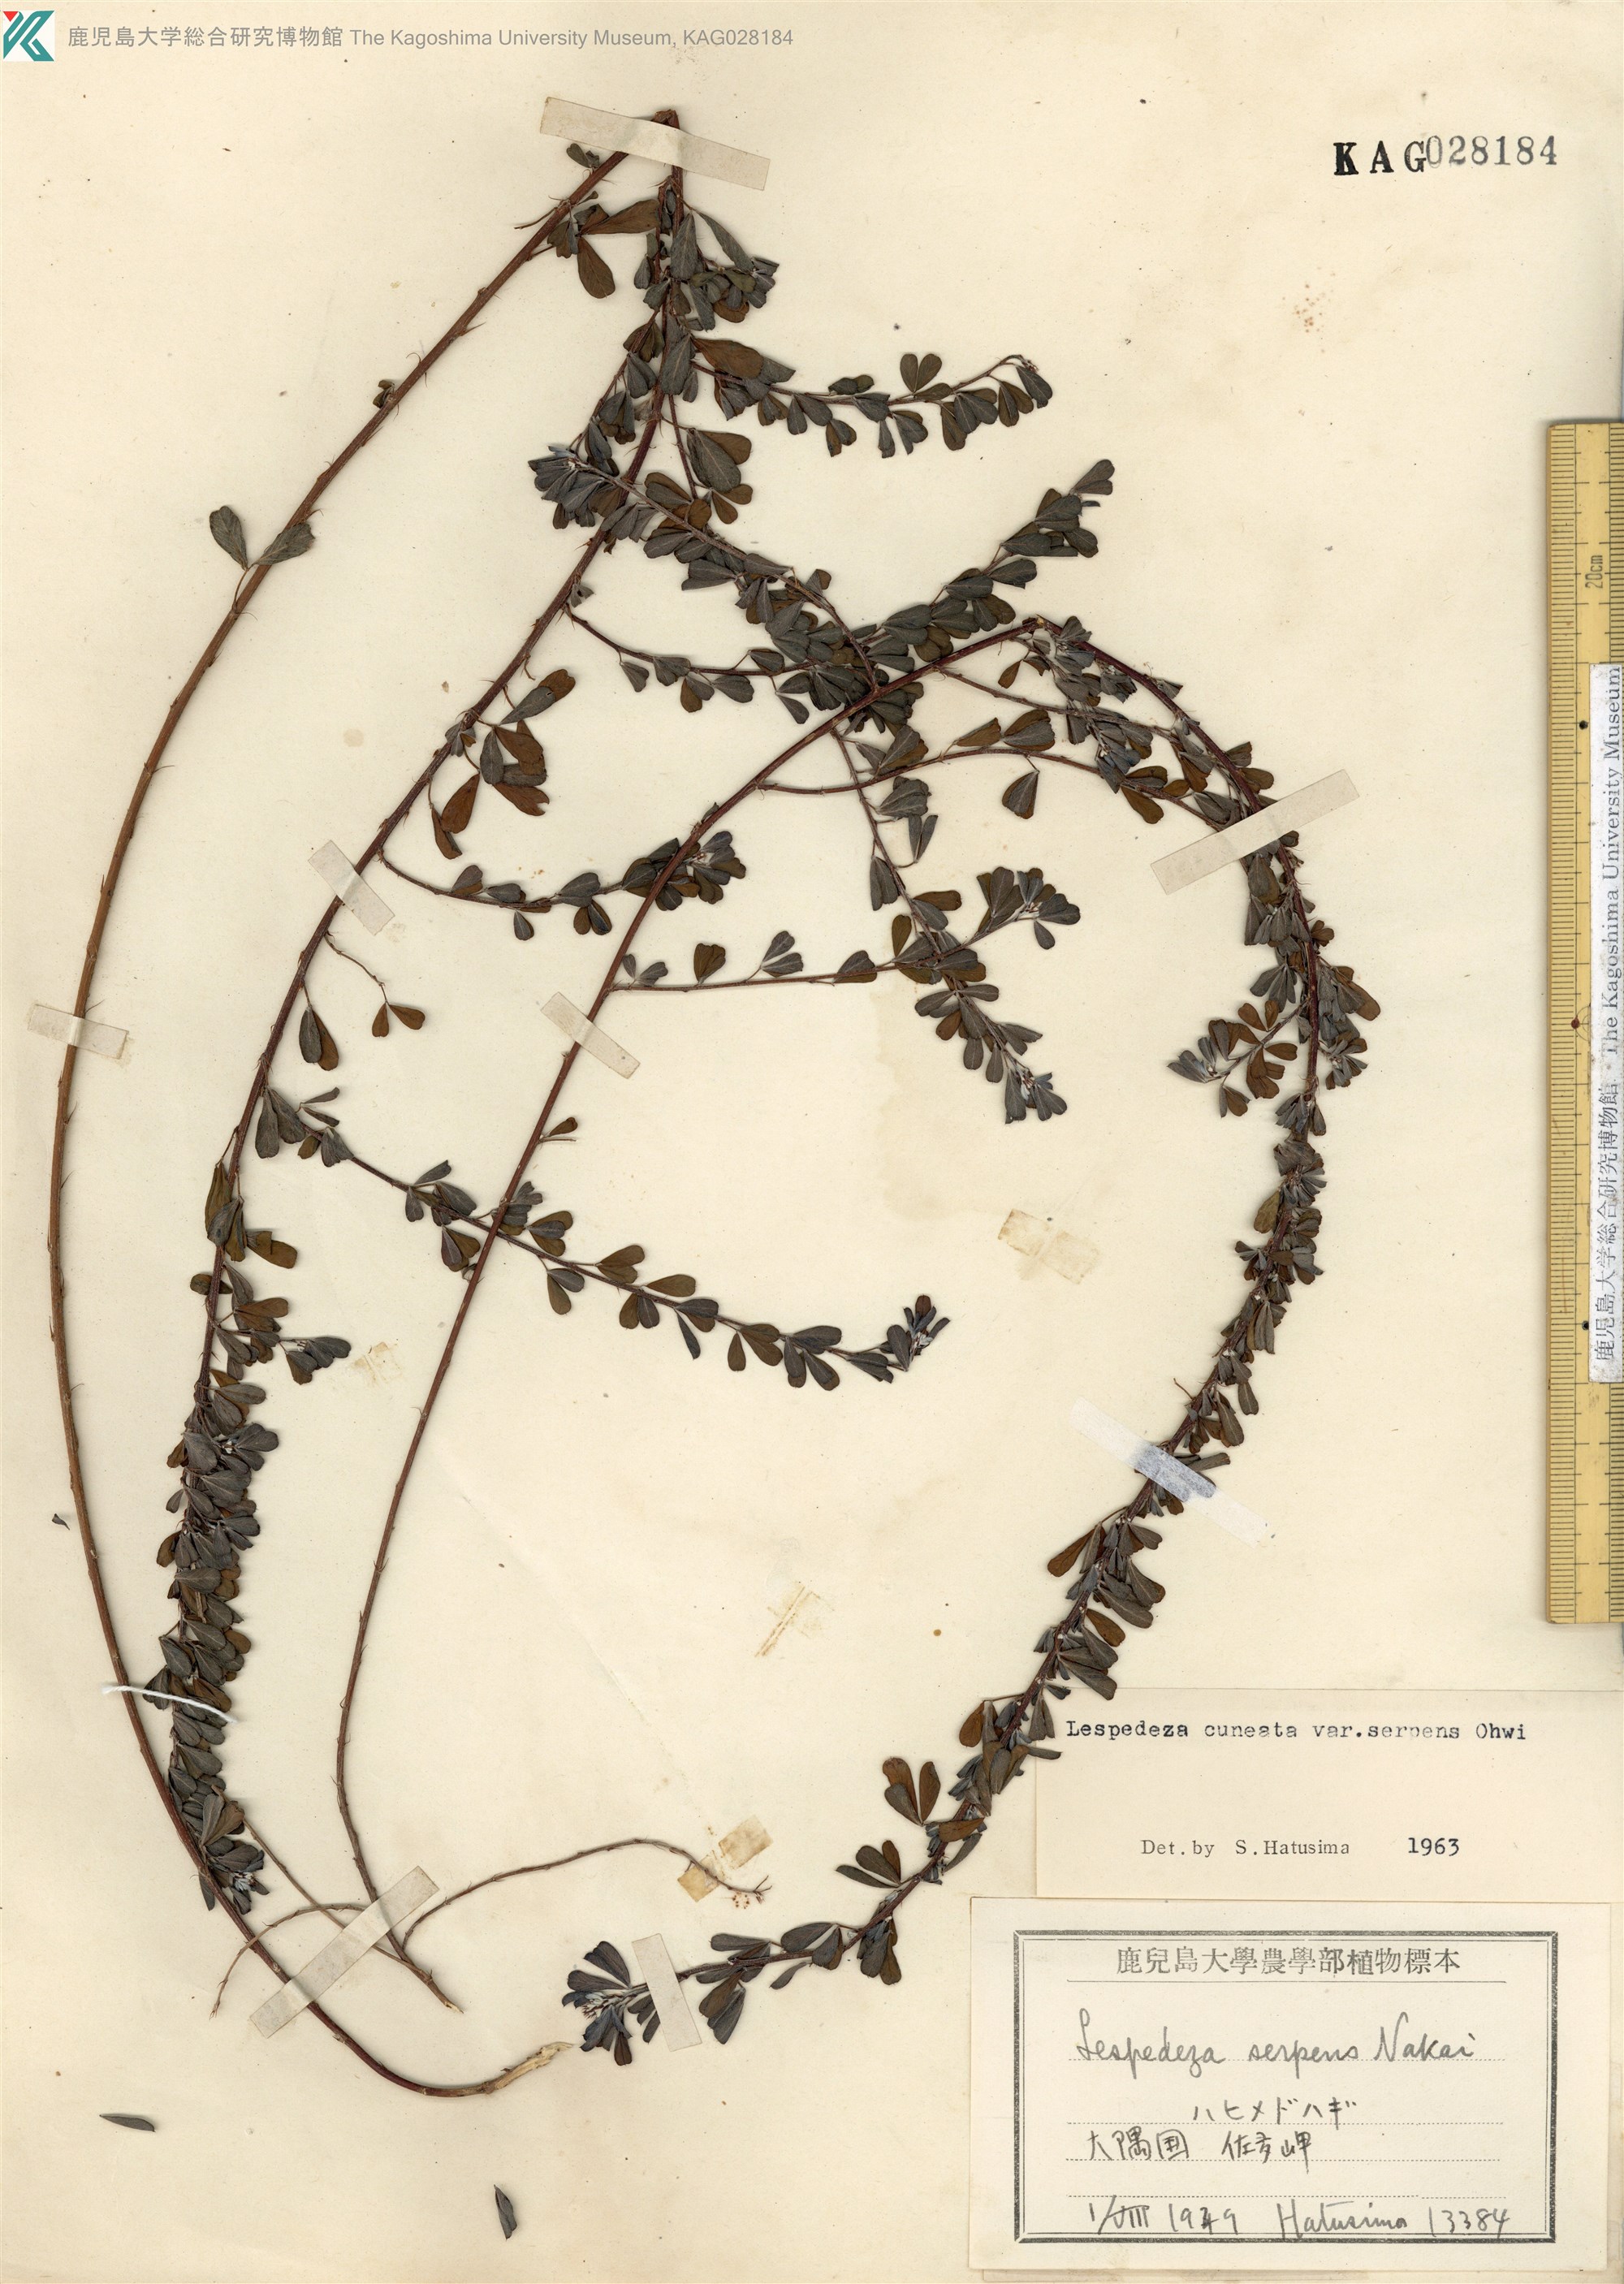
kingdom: Plantae
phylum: Tracheophyta
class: Magnoliopsida
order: Fabales
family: Fabaceae
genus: Lespedeza
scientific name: Lespedeza cuneata
